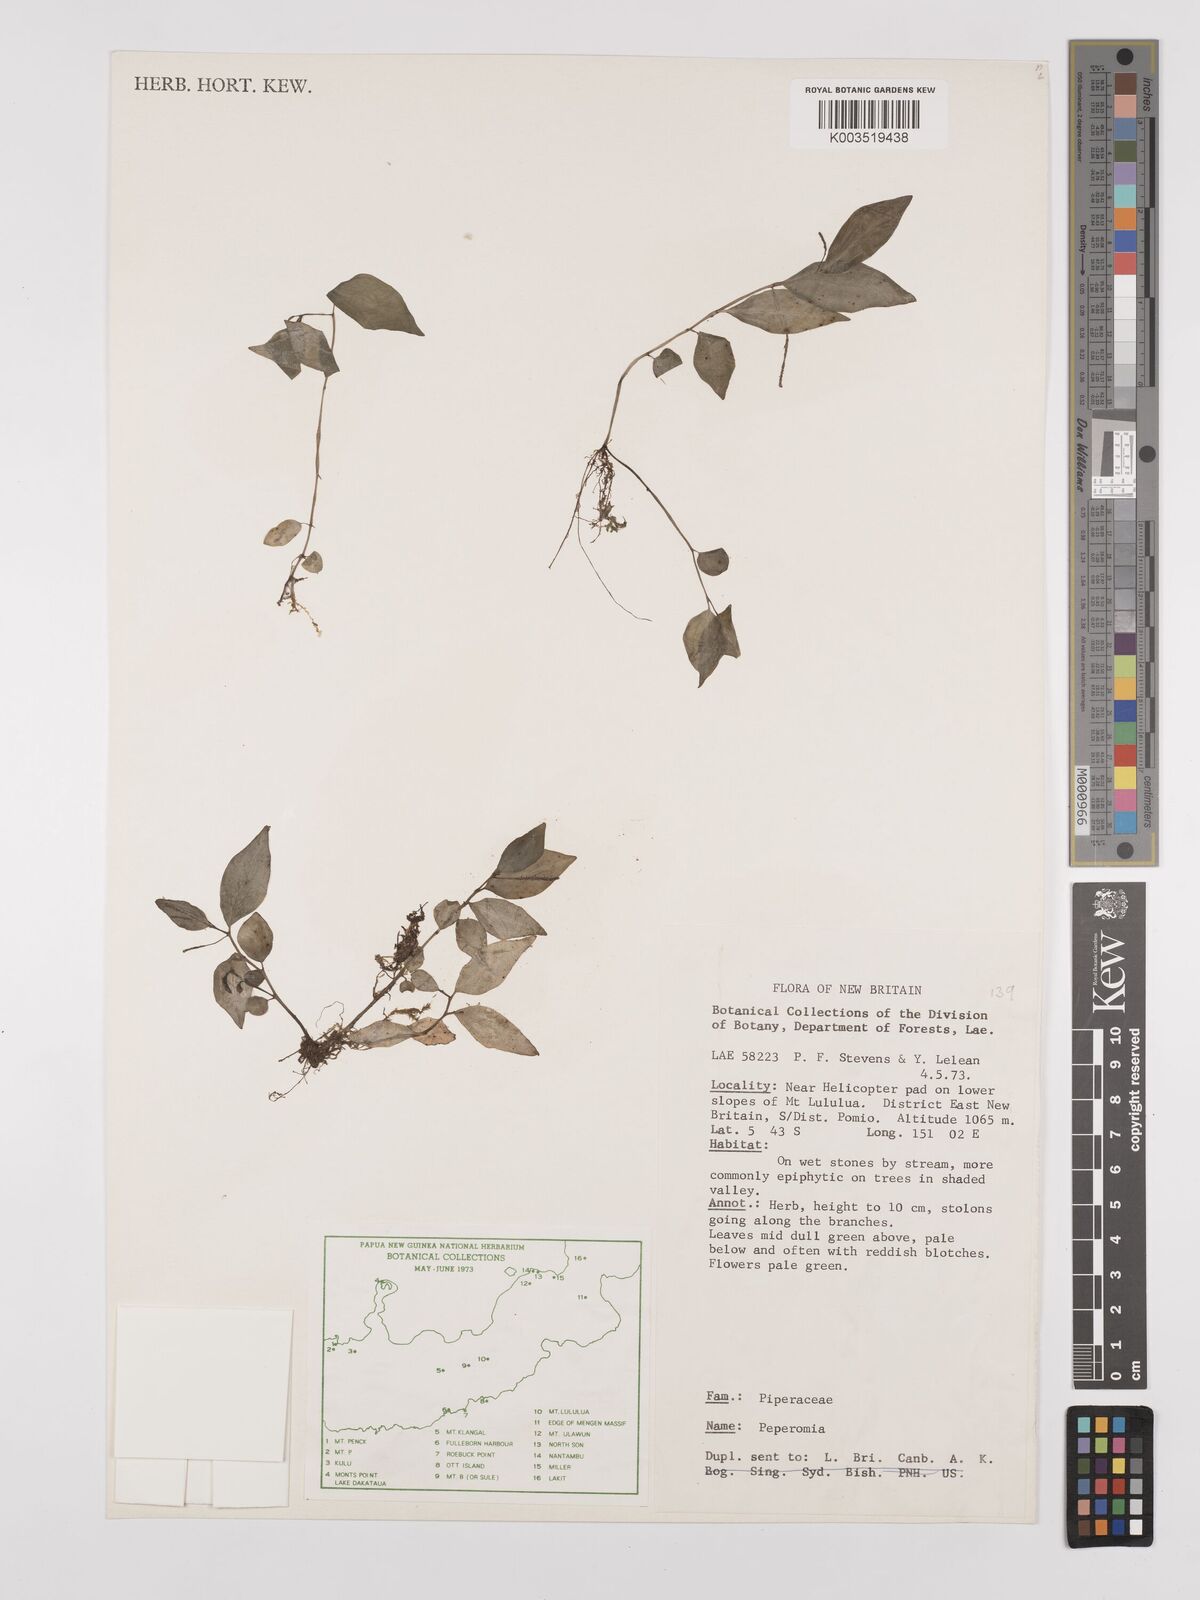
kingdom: Plantae
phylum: Tracheophyta
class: Magnoliopsida
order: Piperales
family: Piperaceae
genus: Peperomia
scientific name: Peperomia
